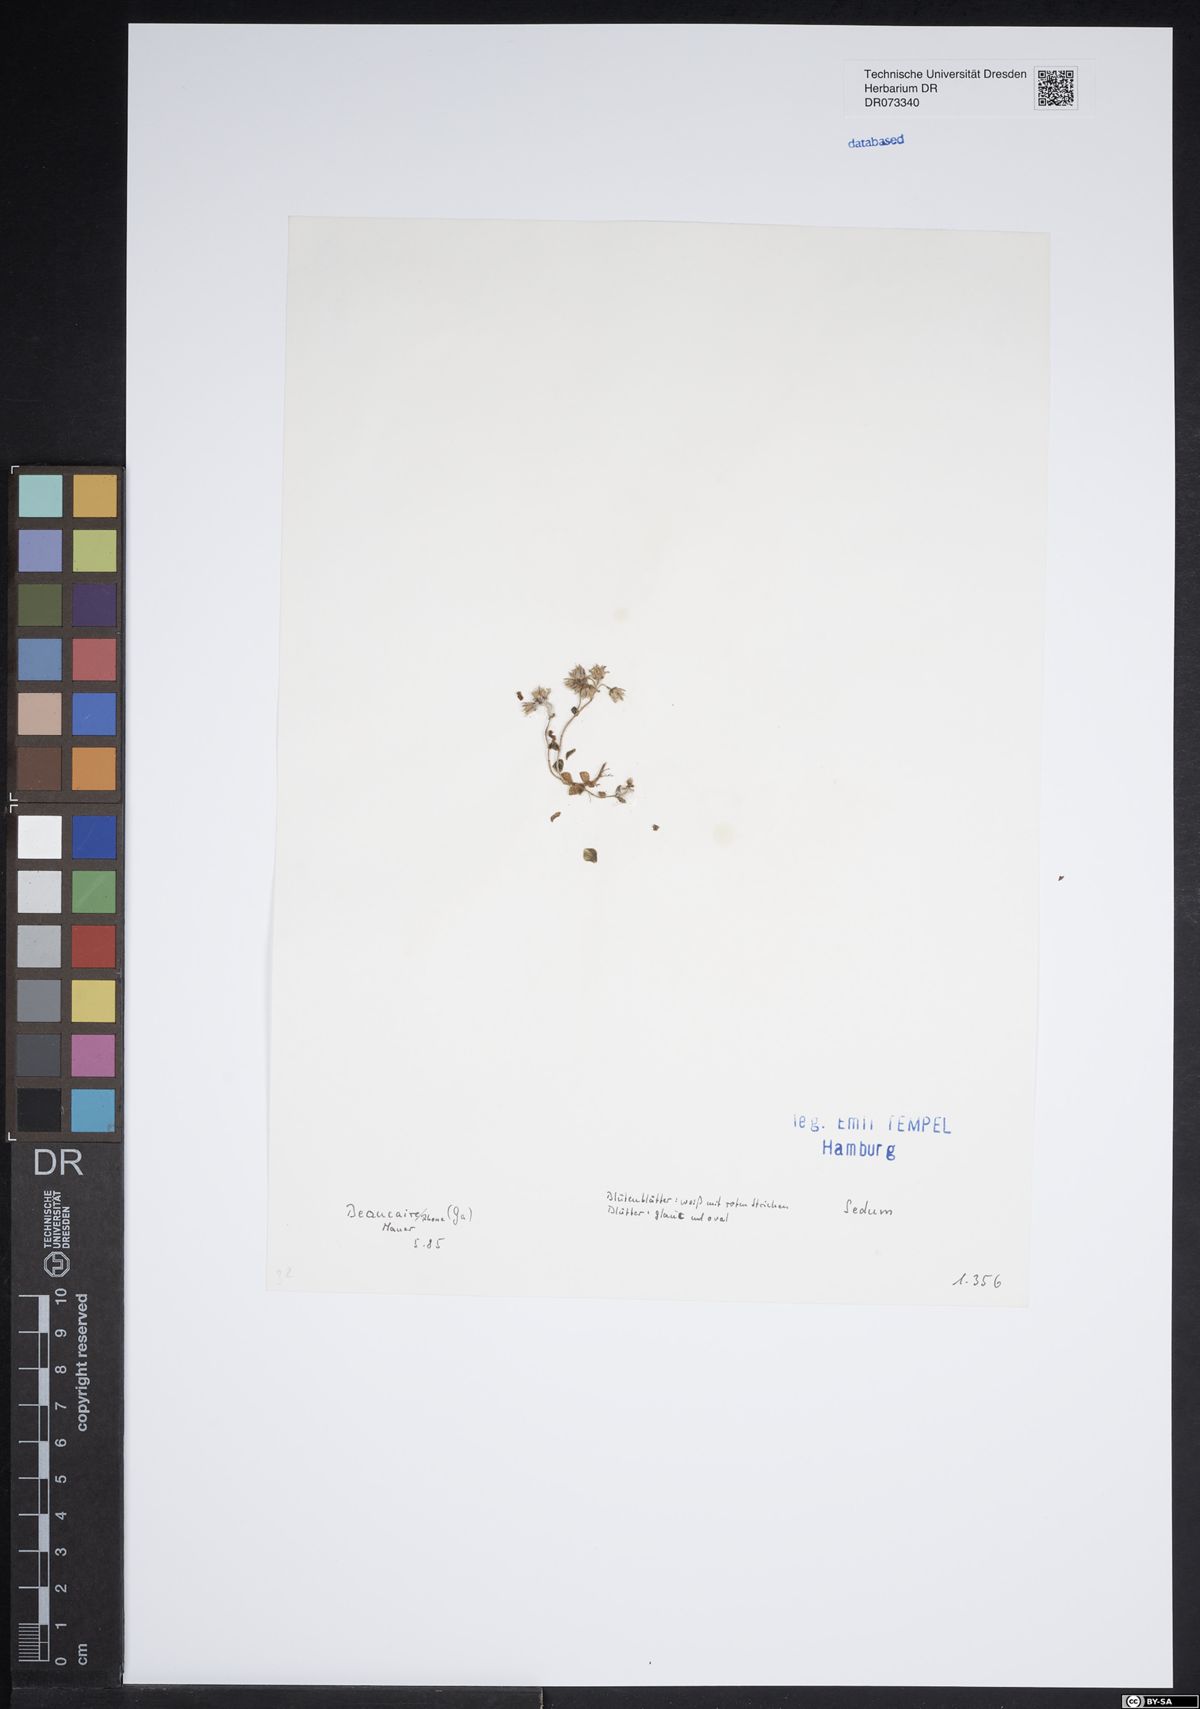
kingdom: Plantae
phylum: Tracheophyta
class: Magnoliopsida
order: Saxifragales
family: Crassulaceae
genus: Sedum
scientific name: Sedum
